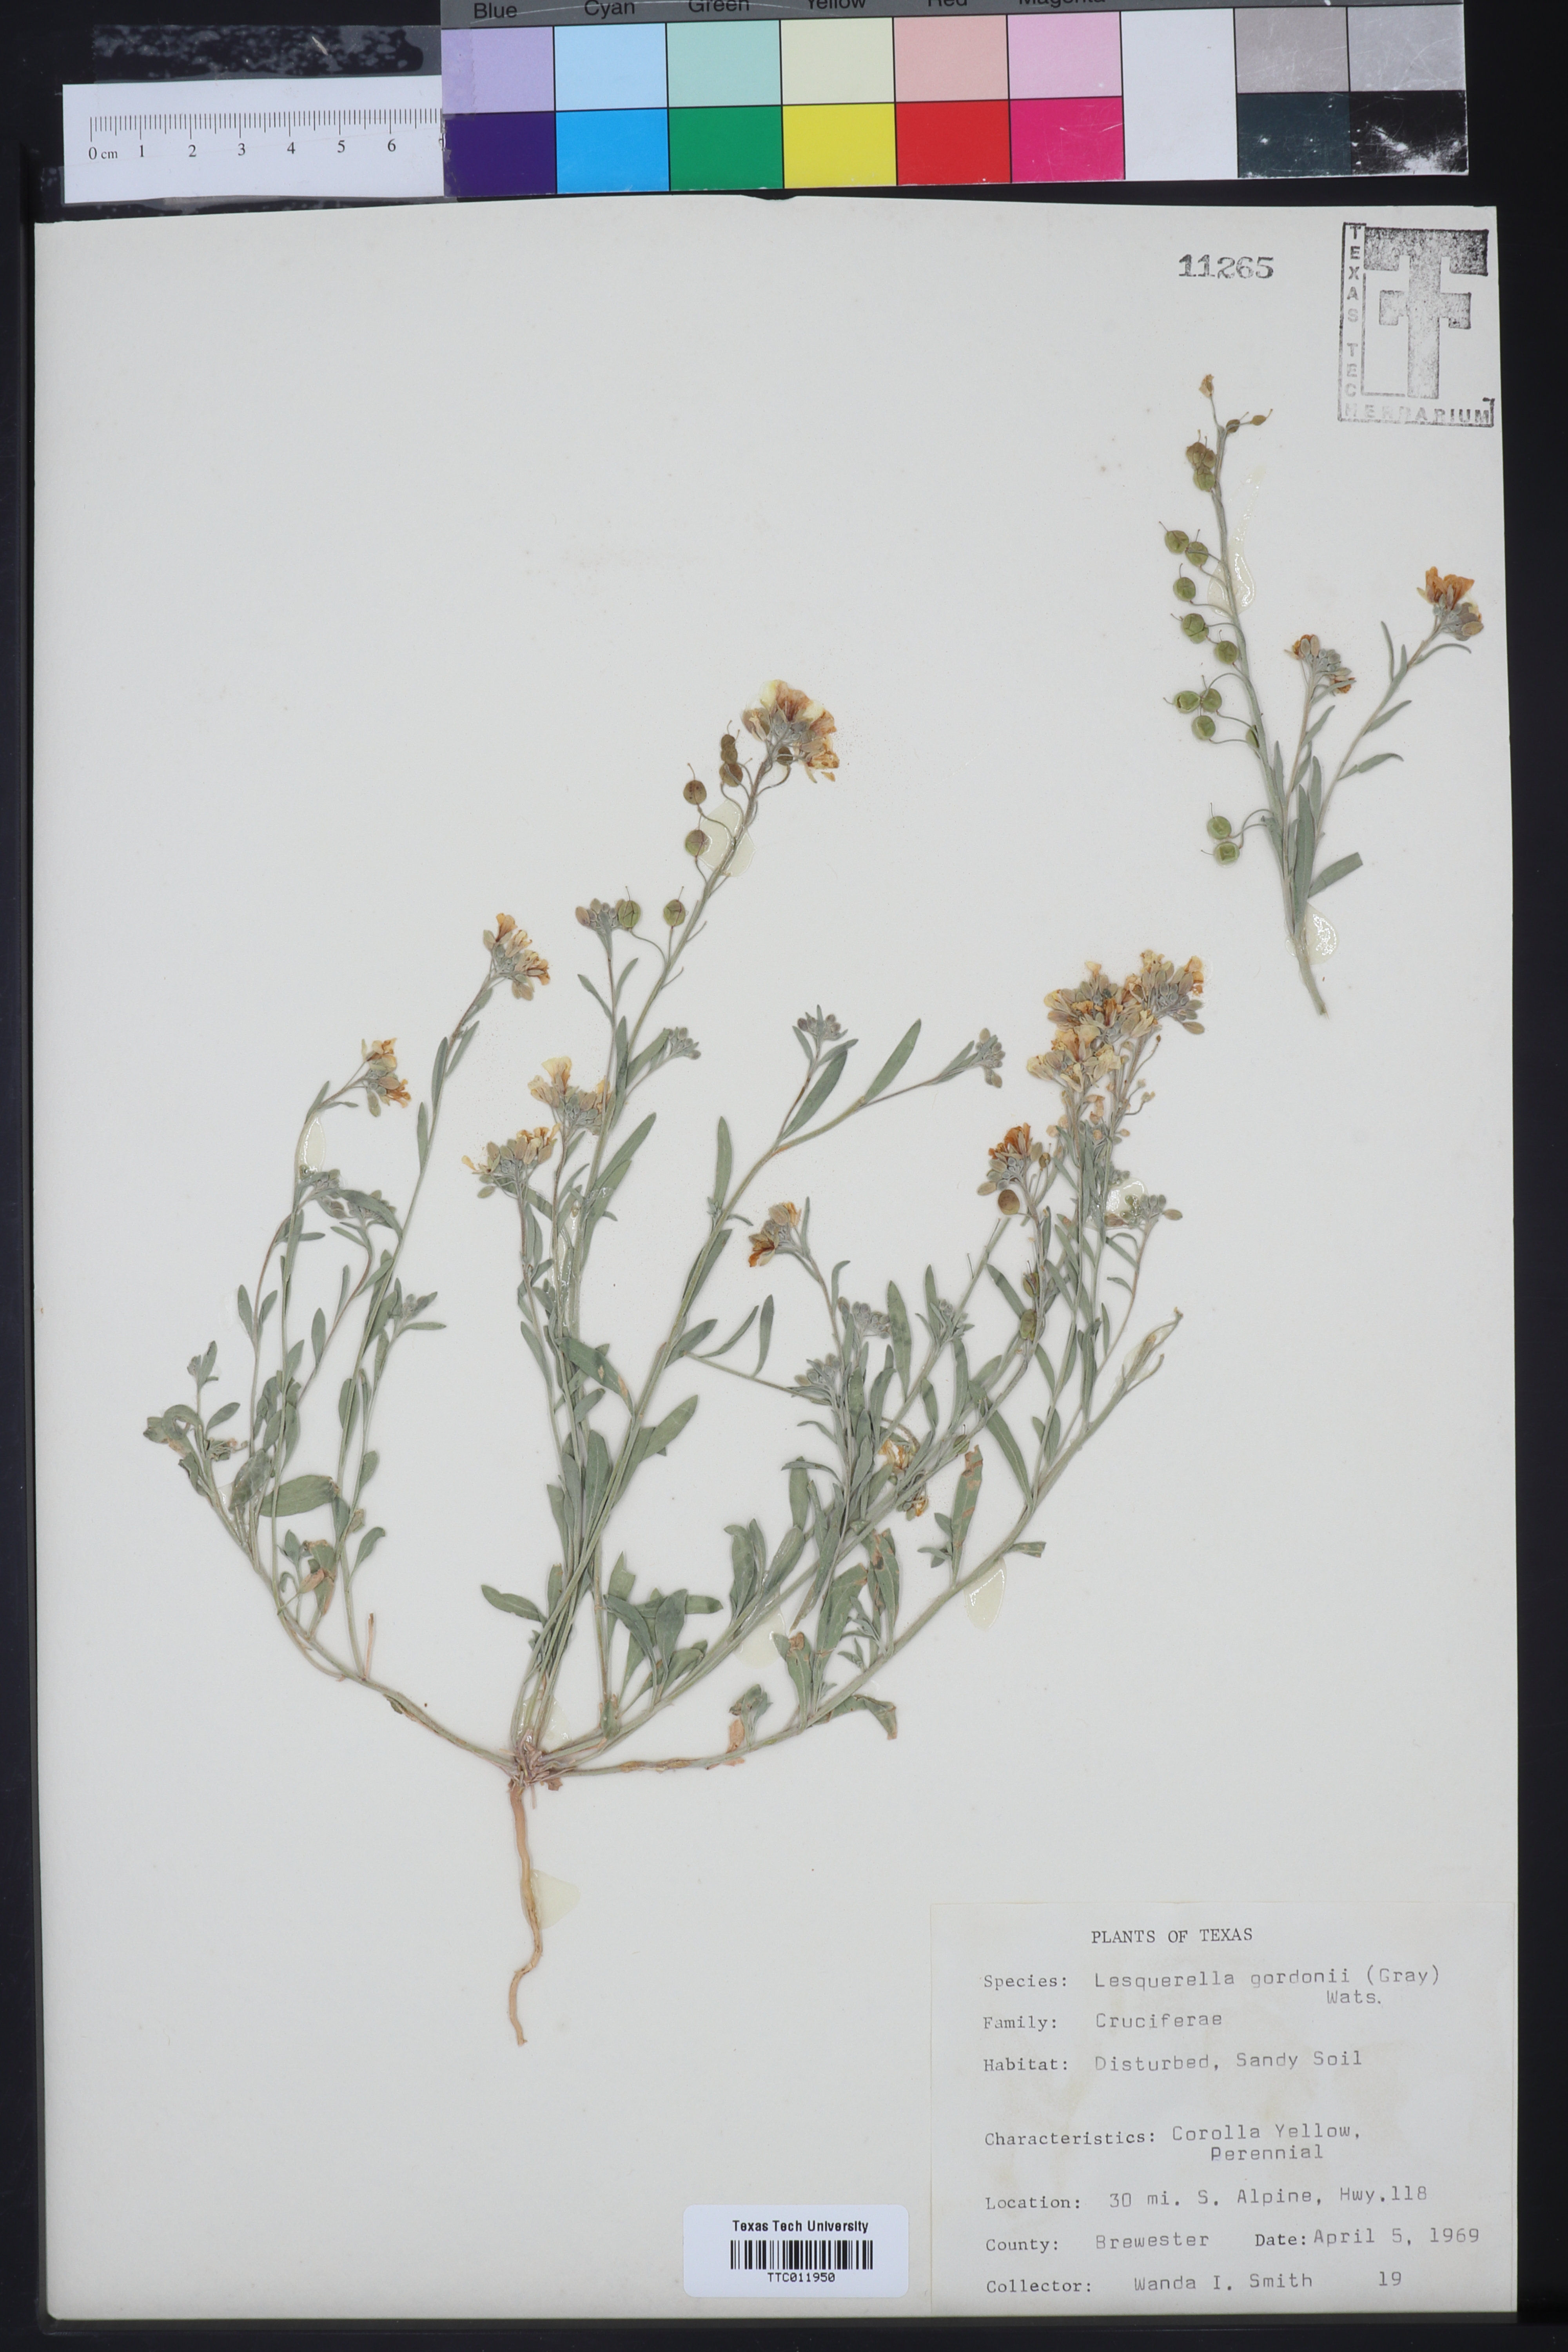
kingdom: Plantae
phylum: Tracheophyta
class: Magnoliopsida
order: Brassicales
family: Brassicaceae
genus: Physaria
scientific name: Physaria gordonii
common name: Gordon's bladderpod
